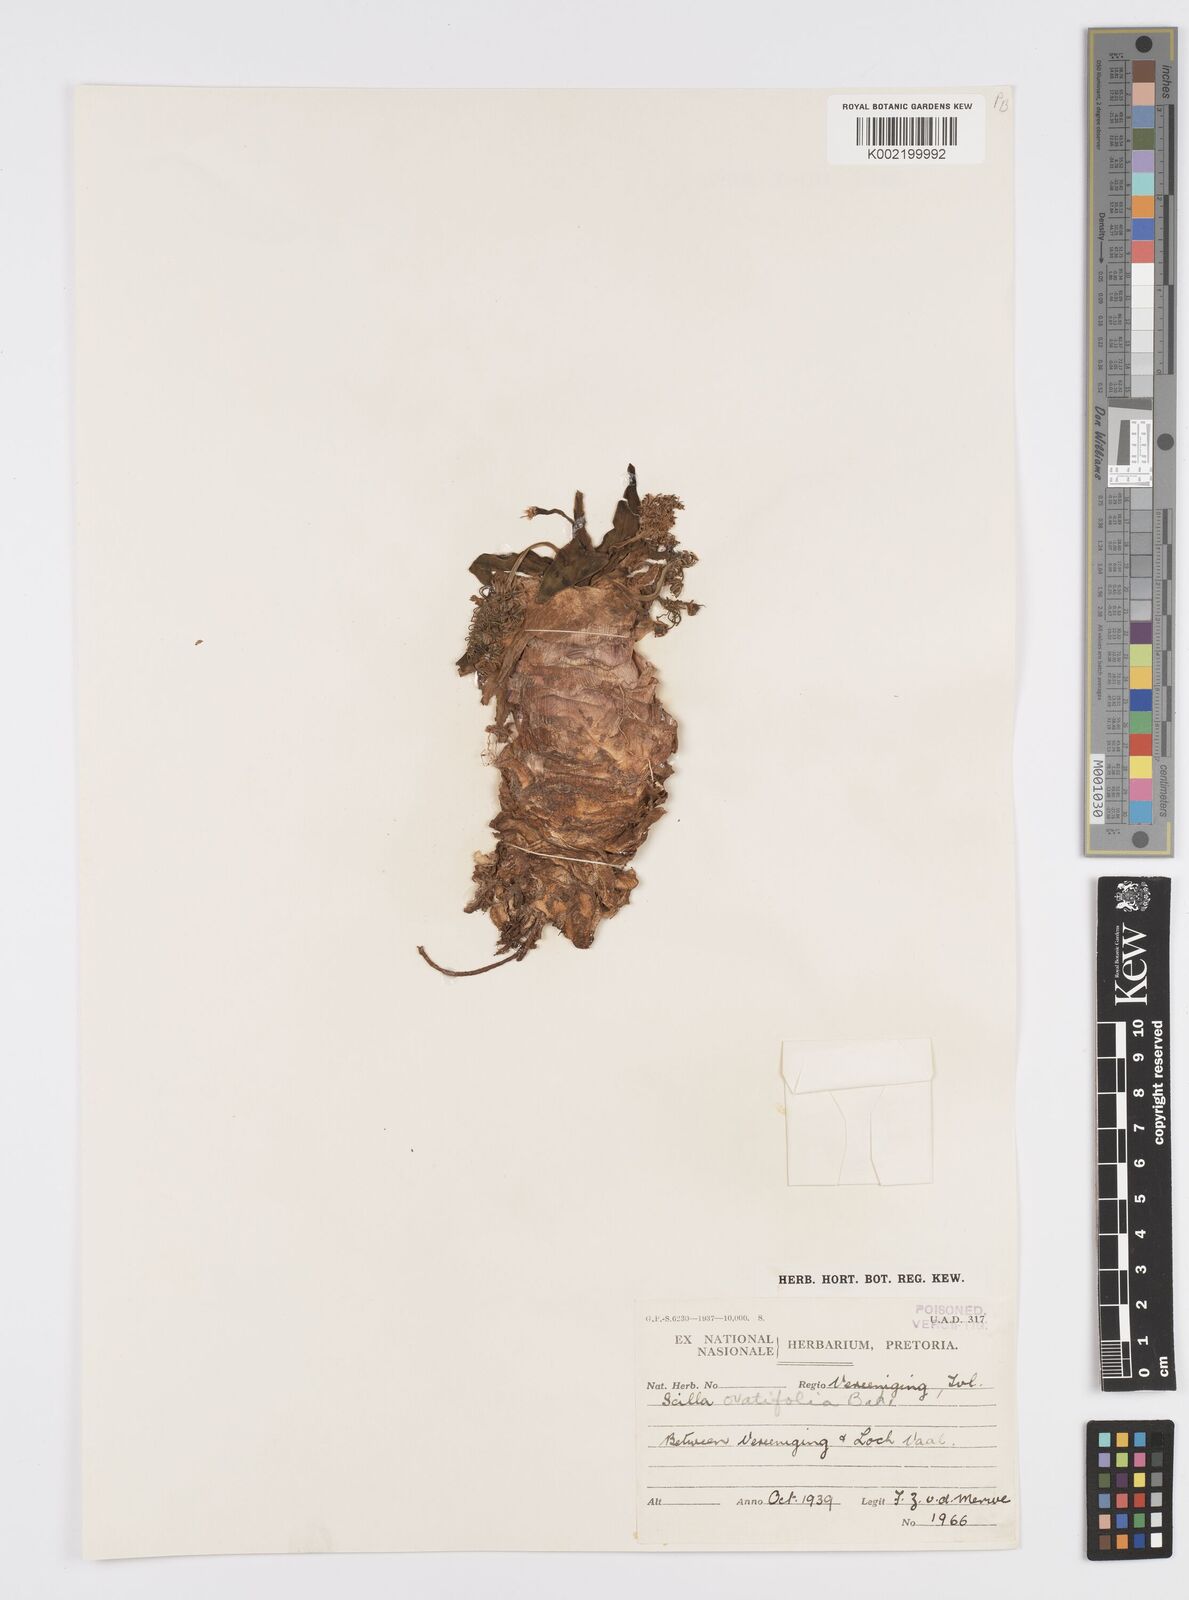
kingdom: Plantae
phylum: Tracheophyta
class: Liliopsida
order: Asparagales
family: Asparagaceae
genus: Ledebouria
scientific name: Ledebouria ovatifolia
